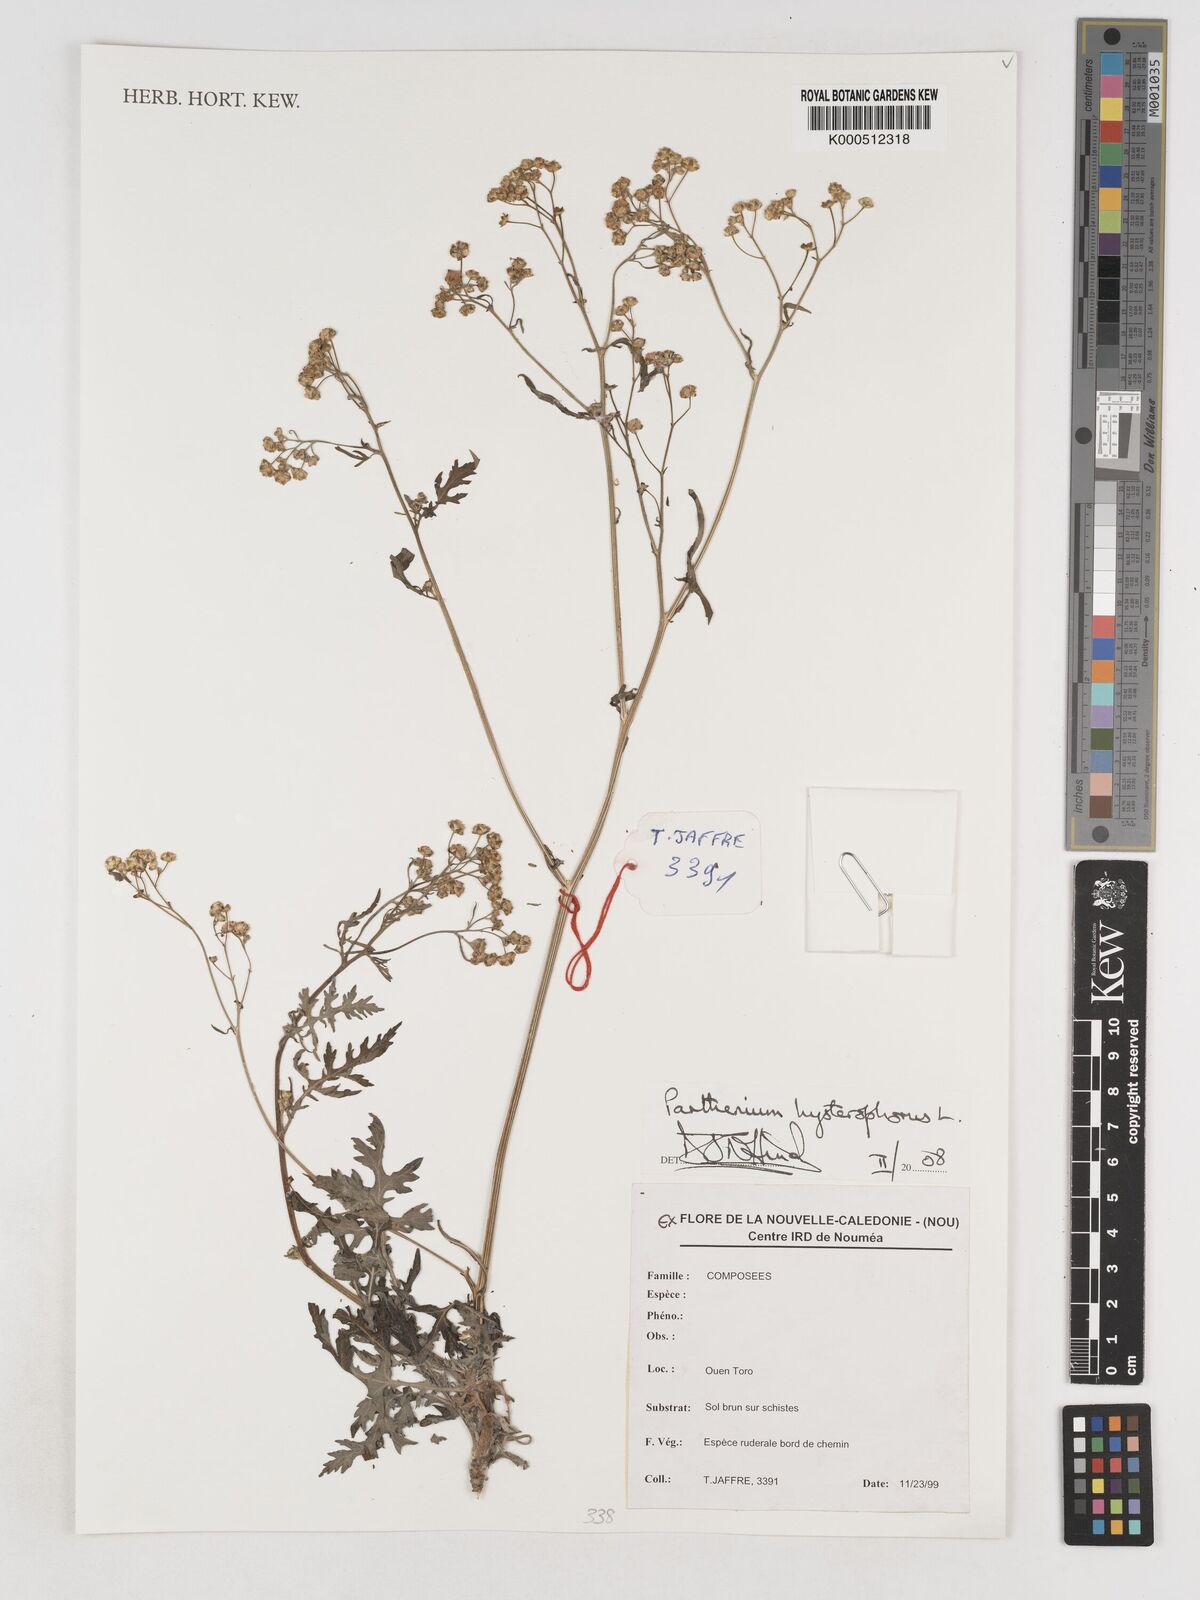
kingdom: Plantae
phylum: Tracheophyta
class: Magnoliopsida
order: Asterales
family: Asteraceae
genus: Parthenium
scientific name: Parthenium hysterophorus
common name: Santa maria feverfew
